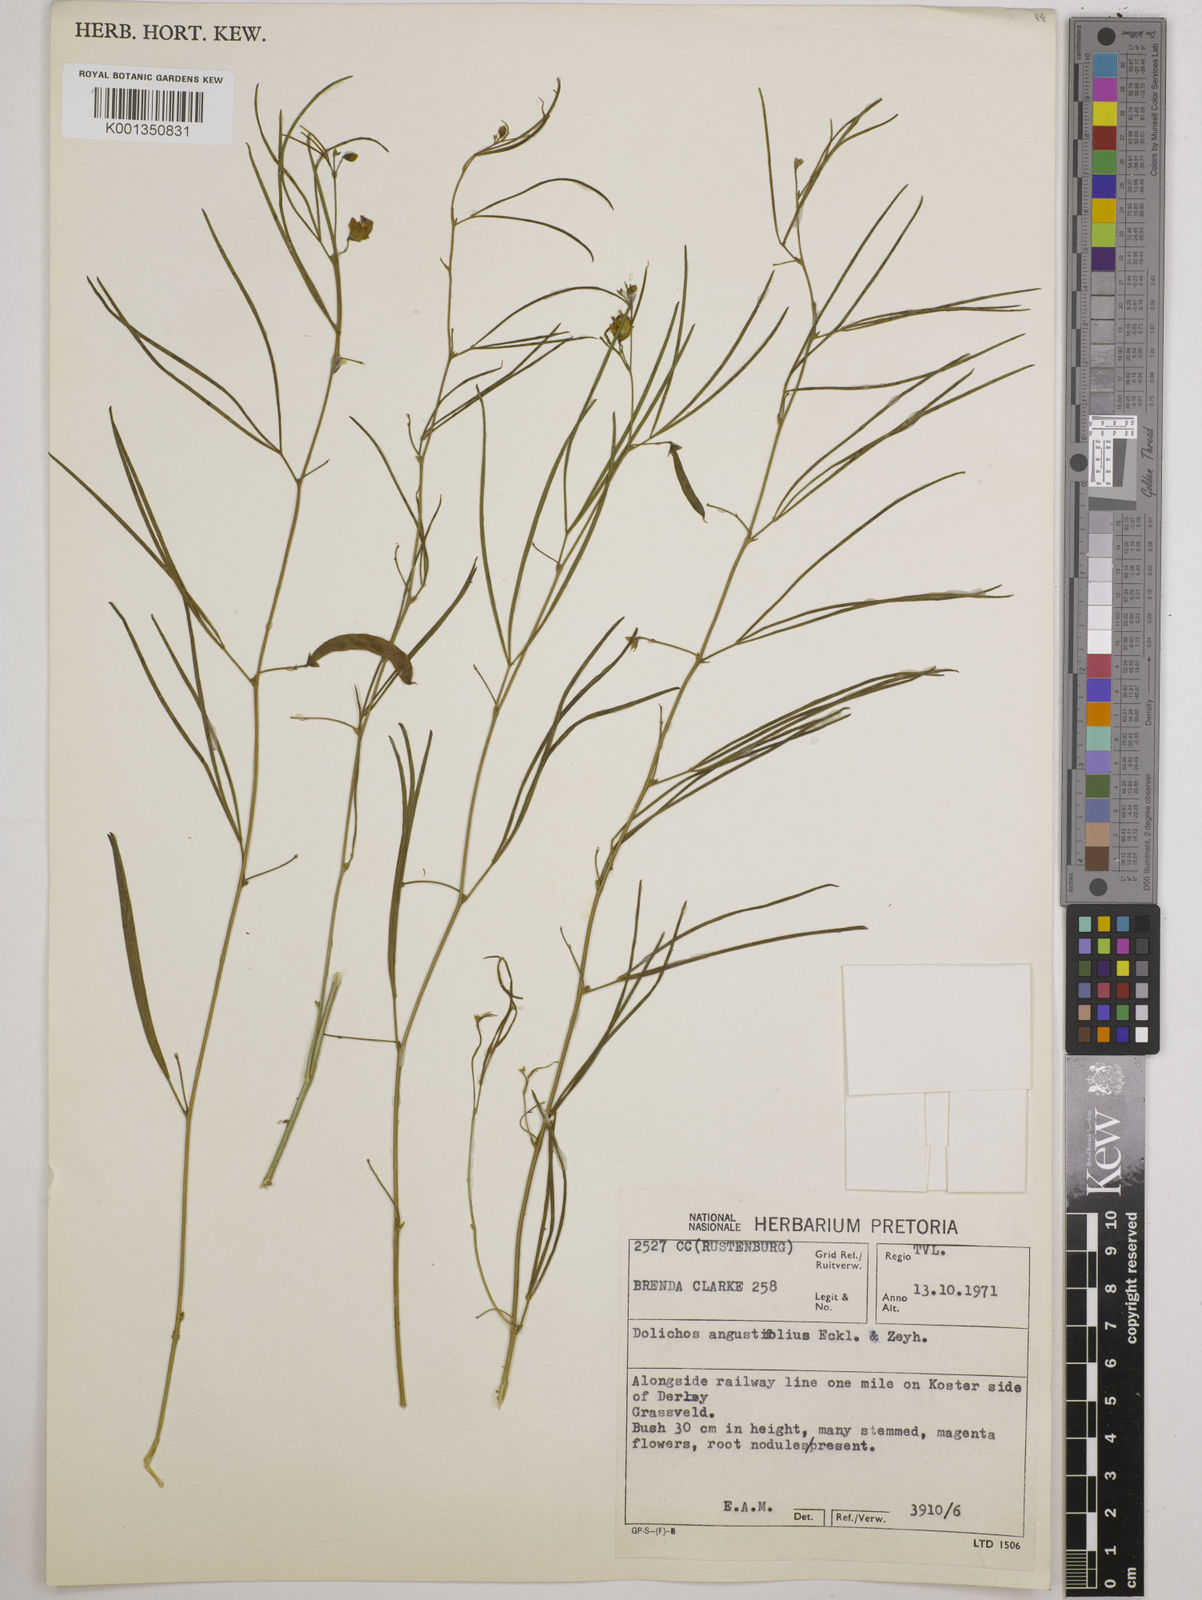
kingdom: Plantae
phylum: Tracheophyta
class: Magnoliopsida
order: Fabales
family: Fabaceae
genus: Dolichos
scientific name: Dolichos
